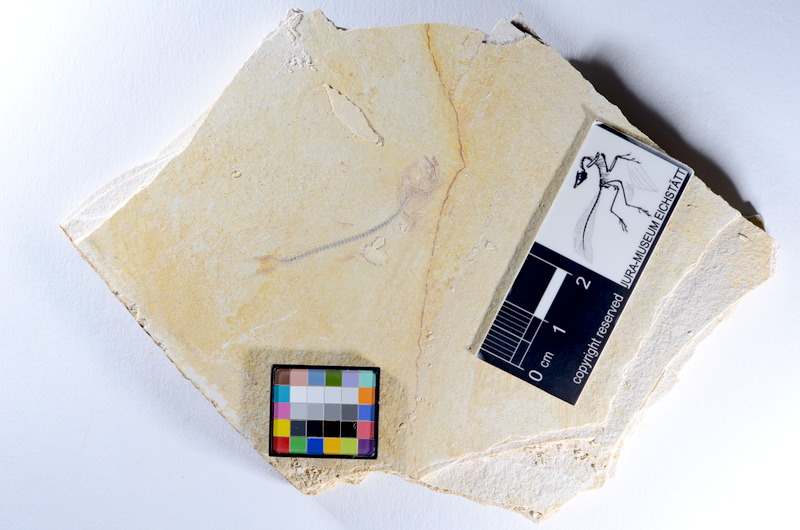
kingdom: Animalia
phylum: Chordata
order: Salmoniformes
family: Orthogonikleithridae
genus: Orthogonikleithrus
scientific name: Orthogonikleithrus hoelli
